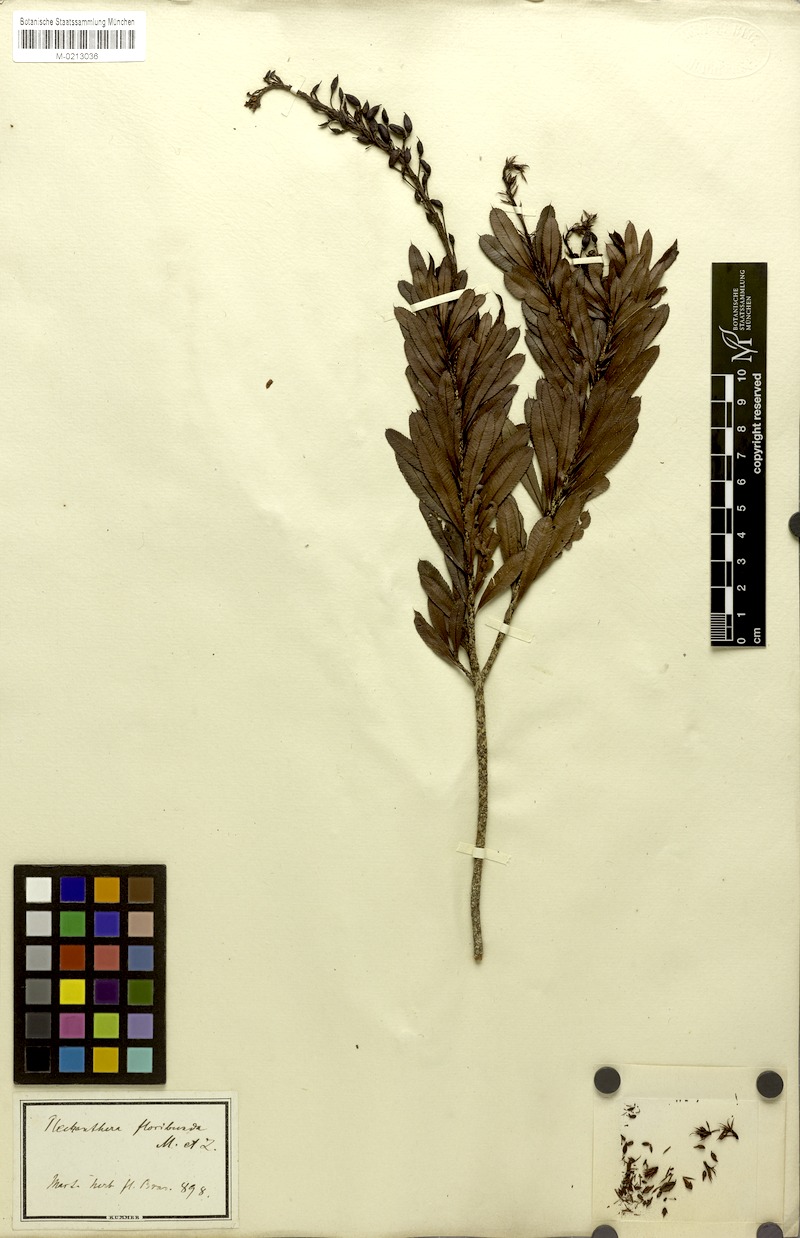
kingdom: Plantae
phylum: Tracheophyta
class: Magnoliopsida
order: Malpighiales
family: Ochnaceae
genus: Luxemburgia
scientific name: Luxemburgia octandra
